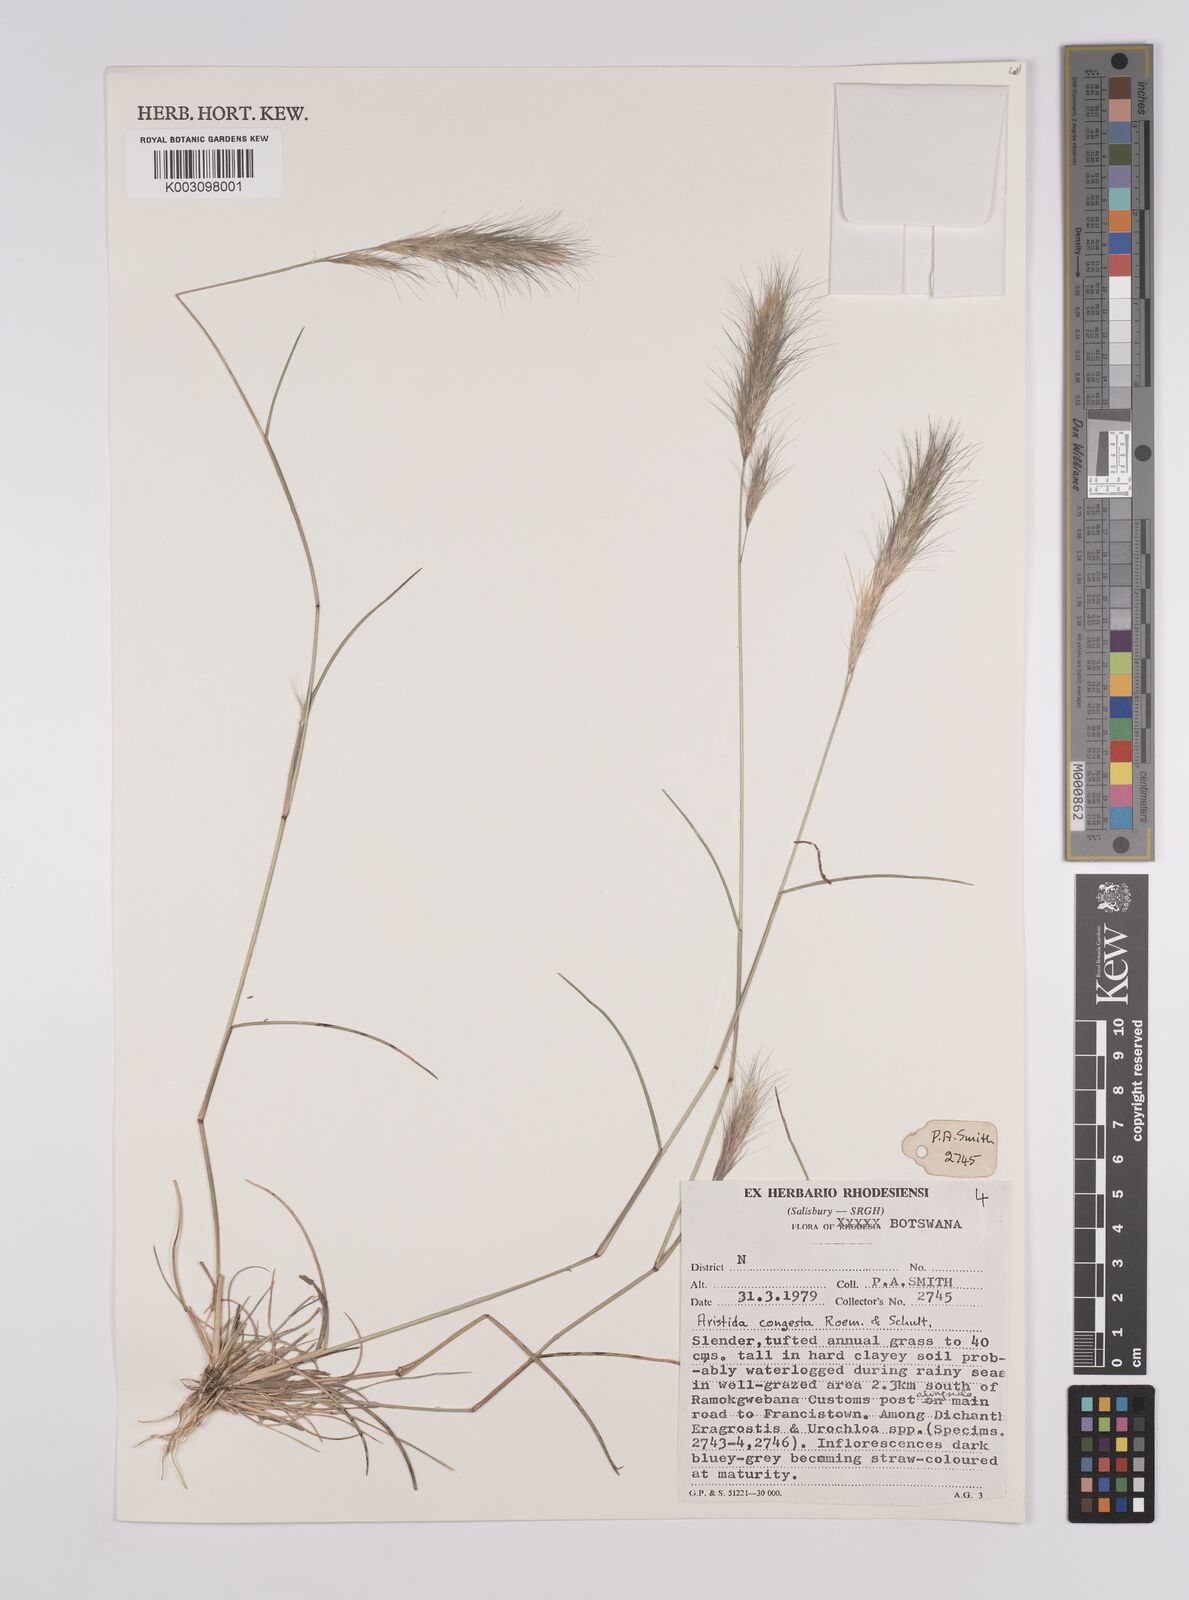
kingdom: Plantae
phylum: Tracheophyta
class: Liliopsida
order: Poales
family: Poaceae
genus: Aristida
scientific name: Aristida congesta
